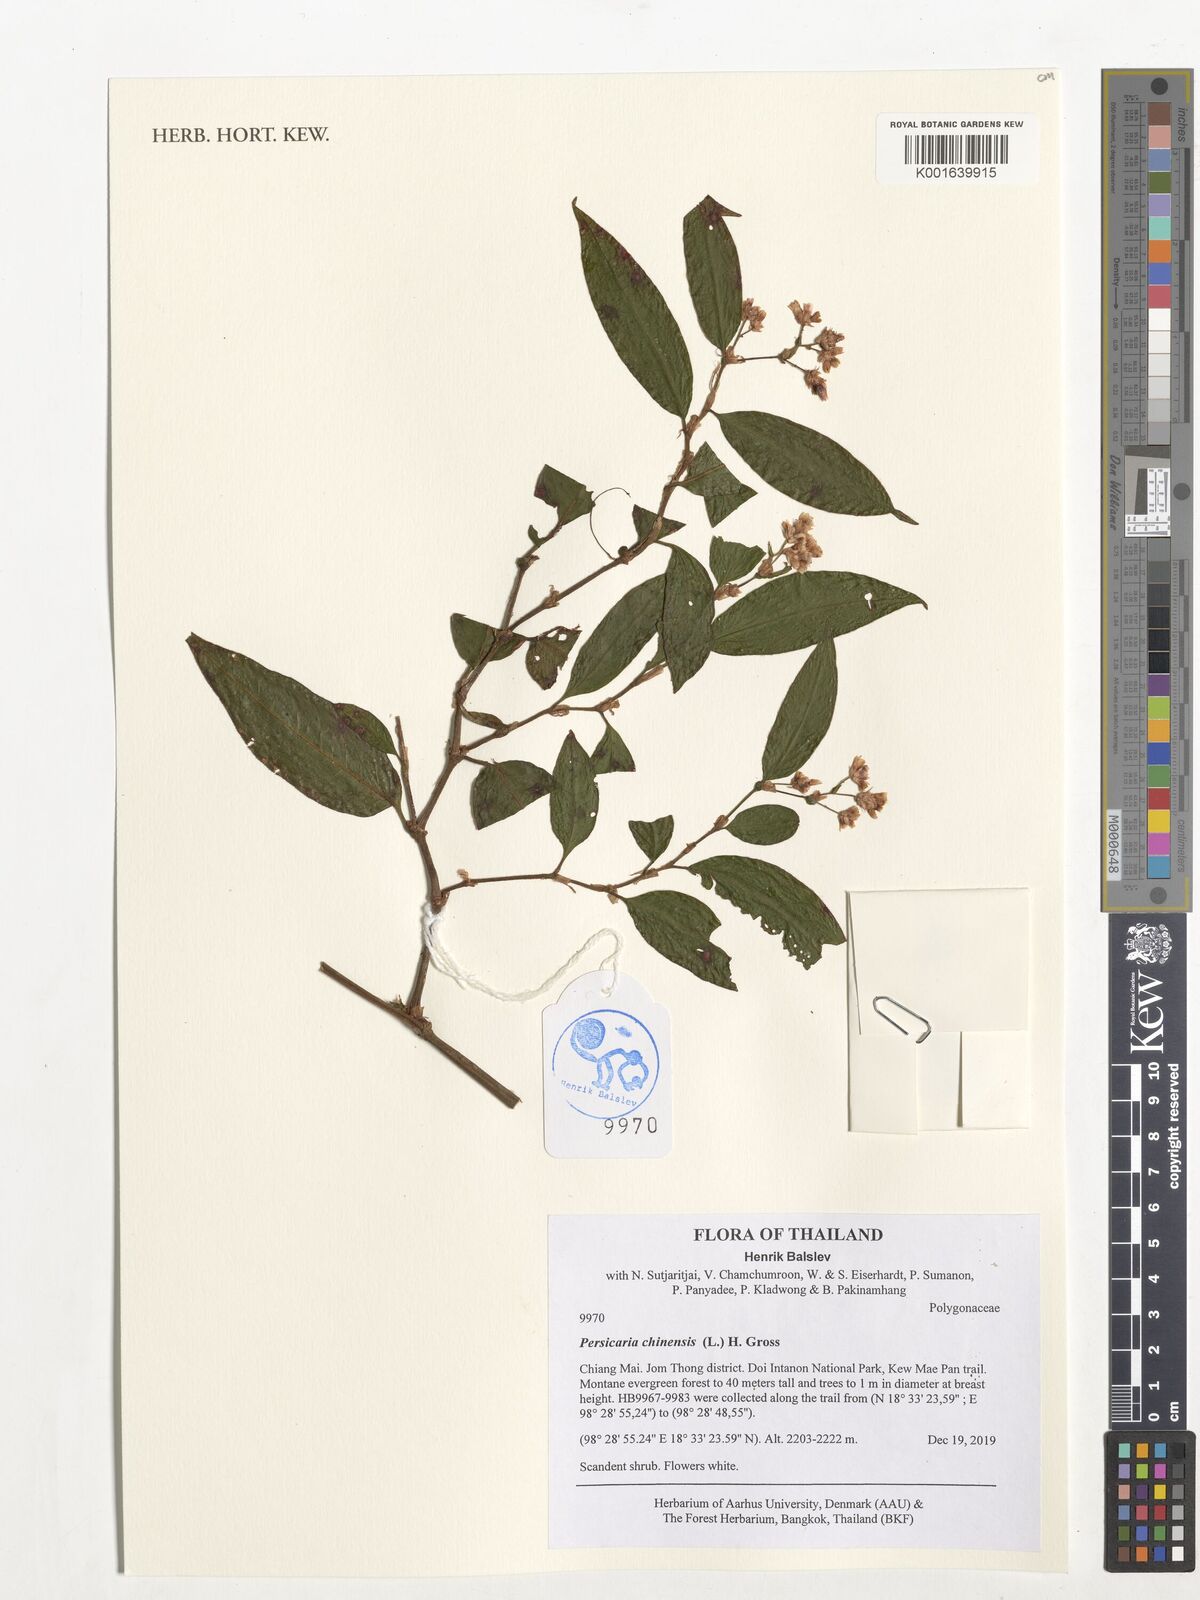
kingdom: Plantae
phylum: Tracheophyta
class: Magnoliopsida
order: Caryophyllales
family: Polygonaceae
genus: Persicaria
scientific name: Persicaria chinensis
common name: Chinese knotweed
